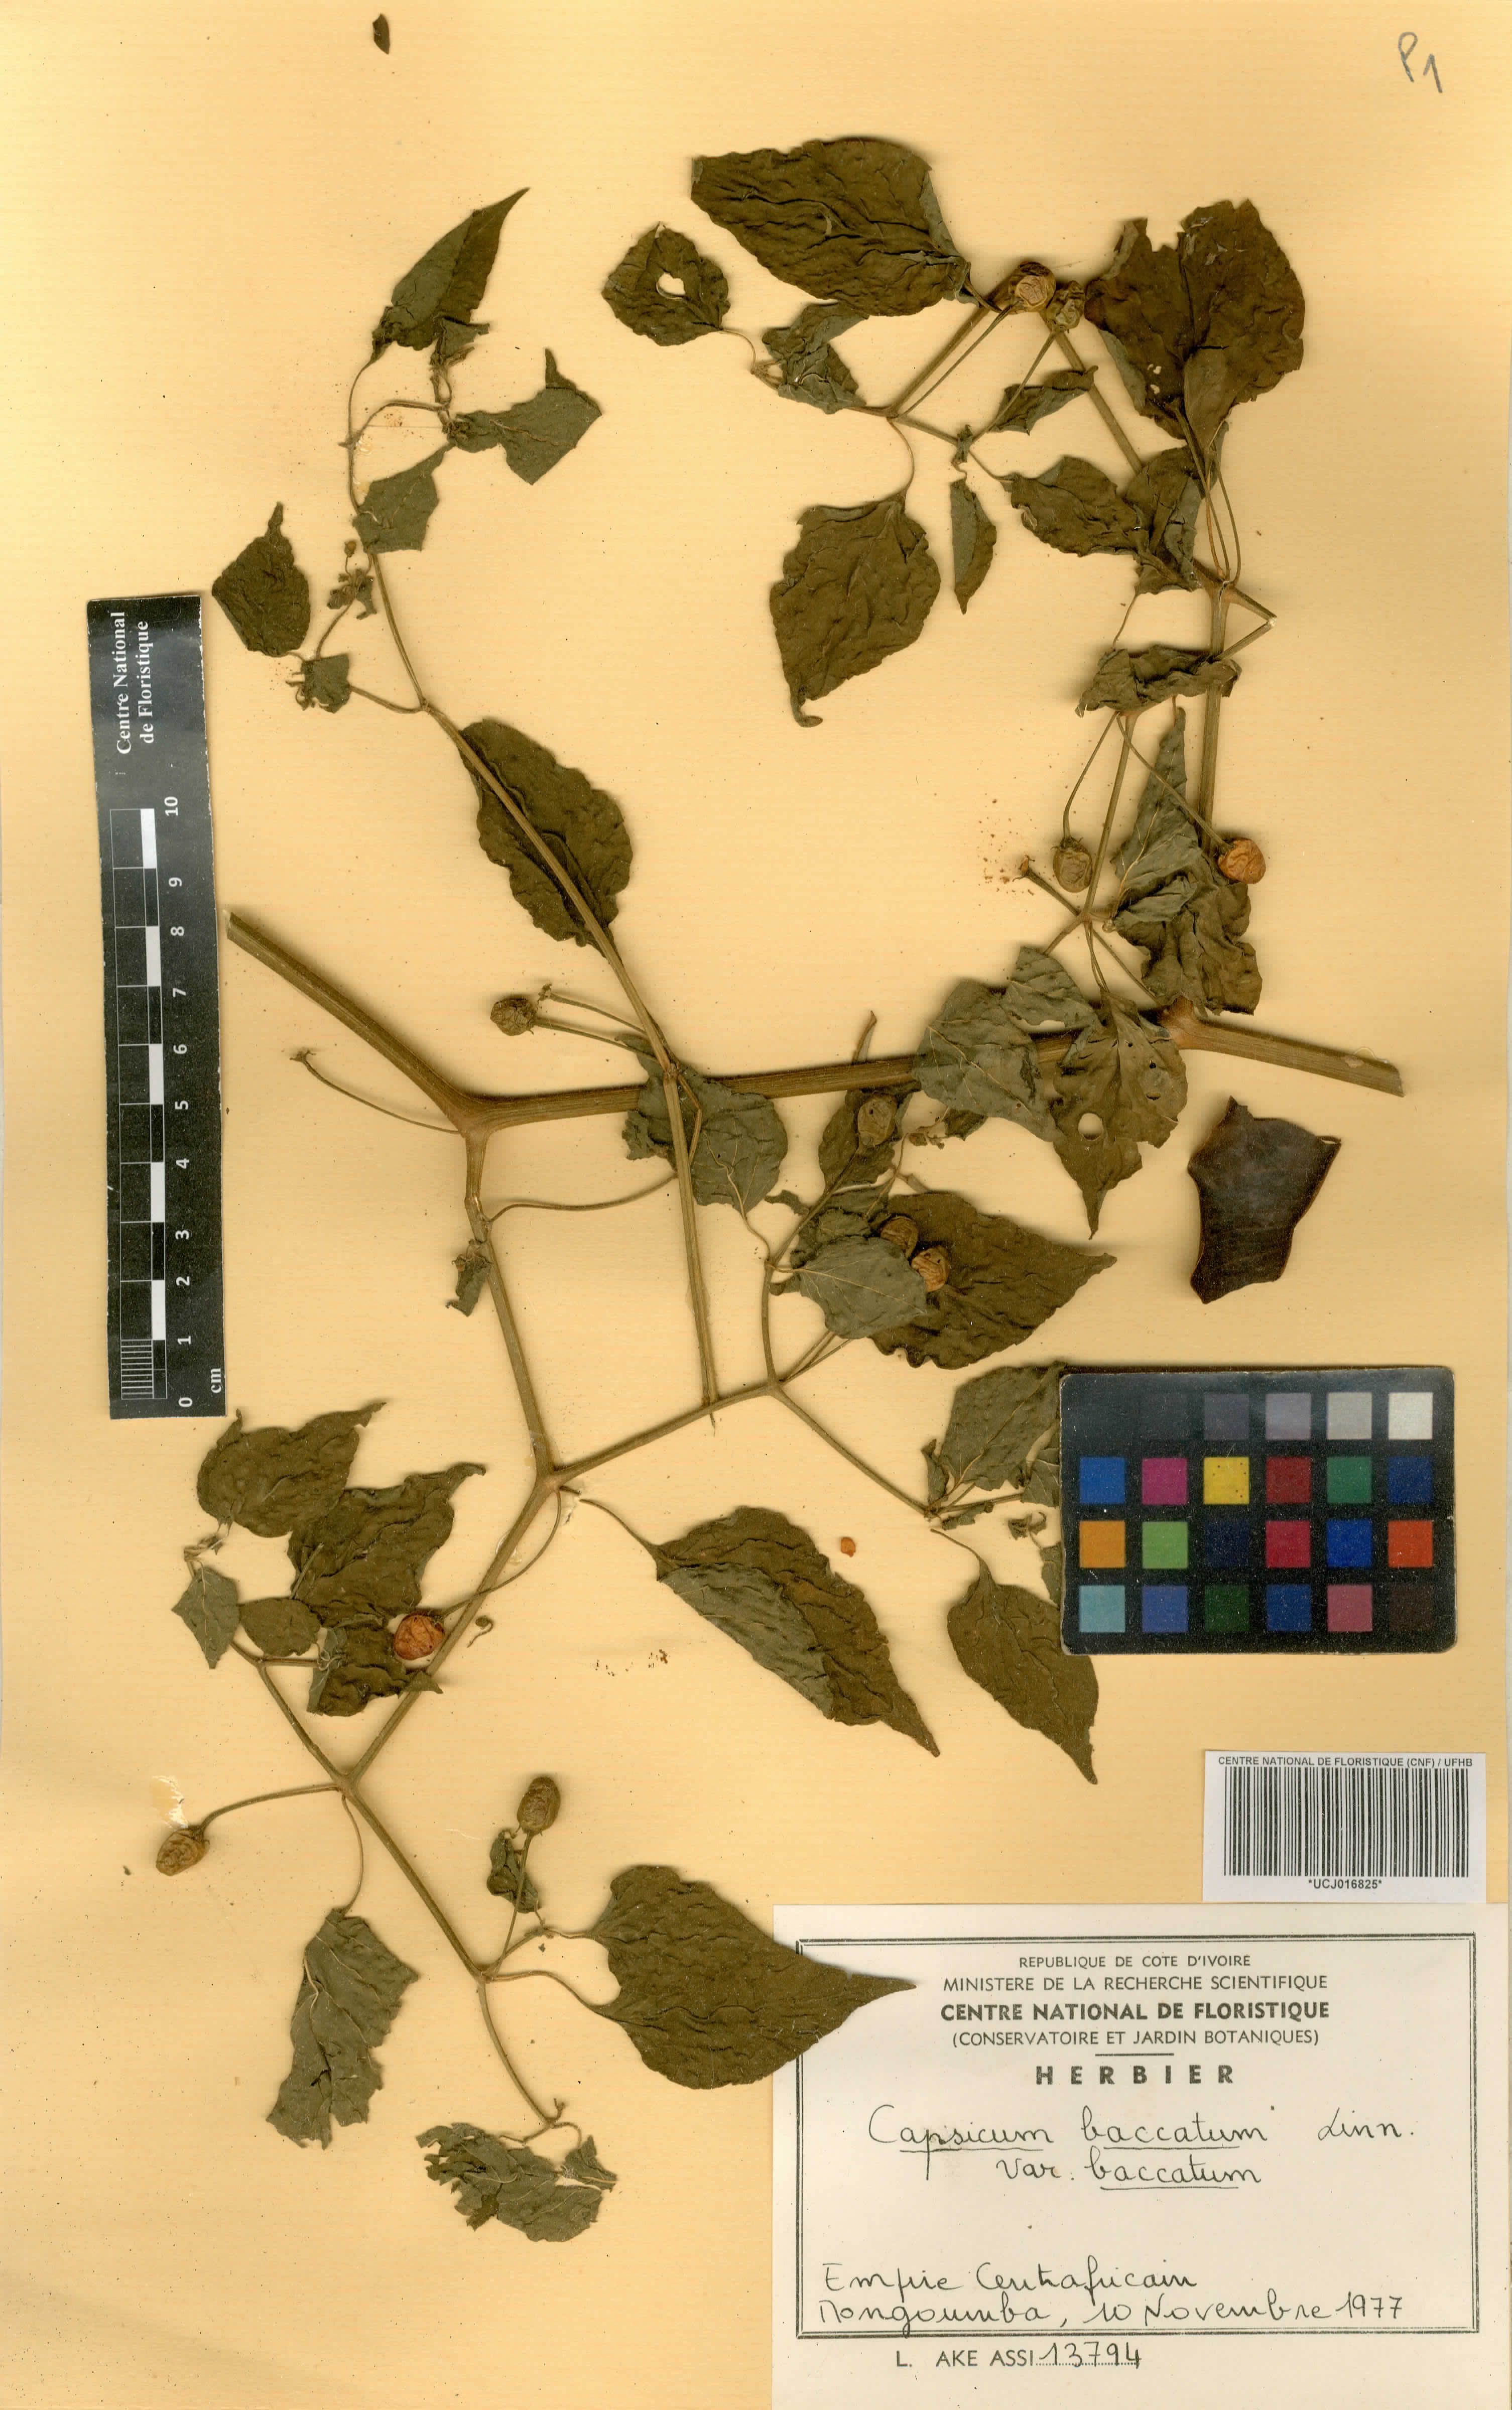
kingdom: Plantae
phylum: Tracheophyta
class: Magnoliopsida
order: Solanales
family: Solanaceae
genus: Capsicum
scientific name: Capsicum baccatum
